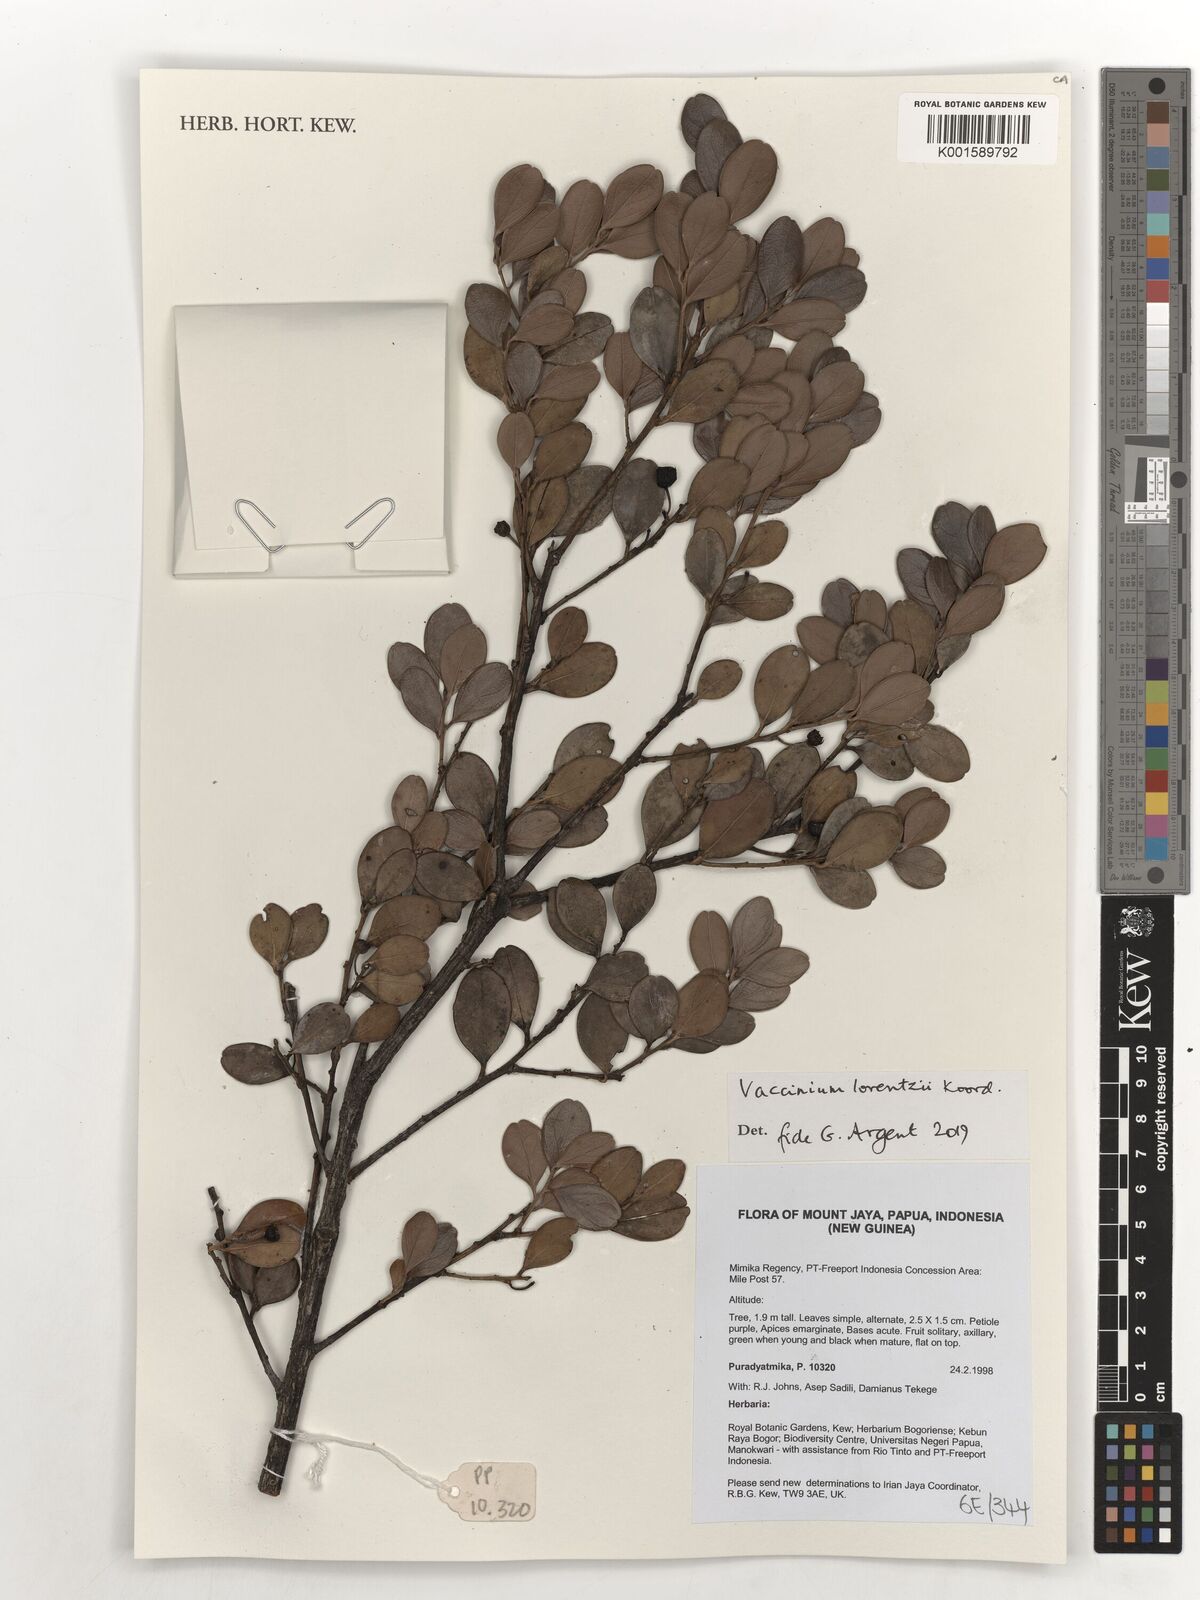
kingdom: Plantae
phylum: Tracheophyta
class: Magnoliopsida
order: Ericales
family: Ericaceae
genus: Vaccinium
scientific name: Vaccinium lorentzii
